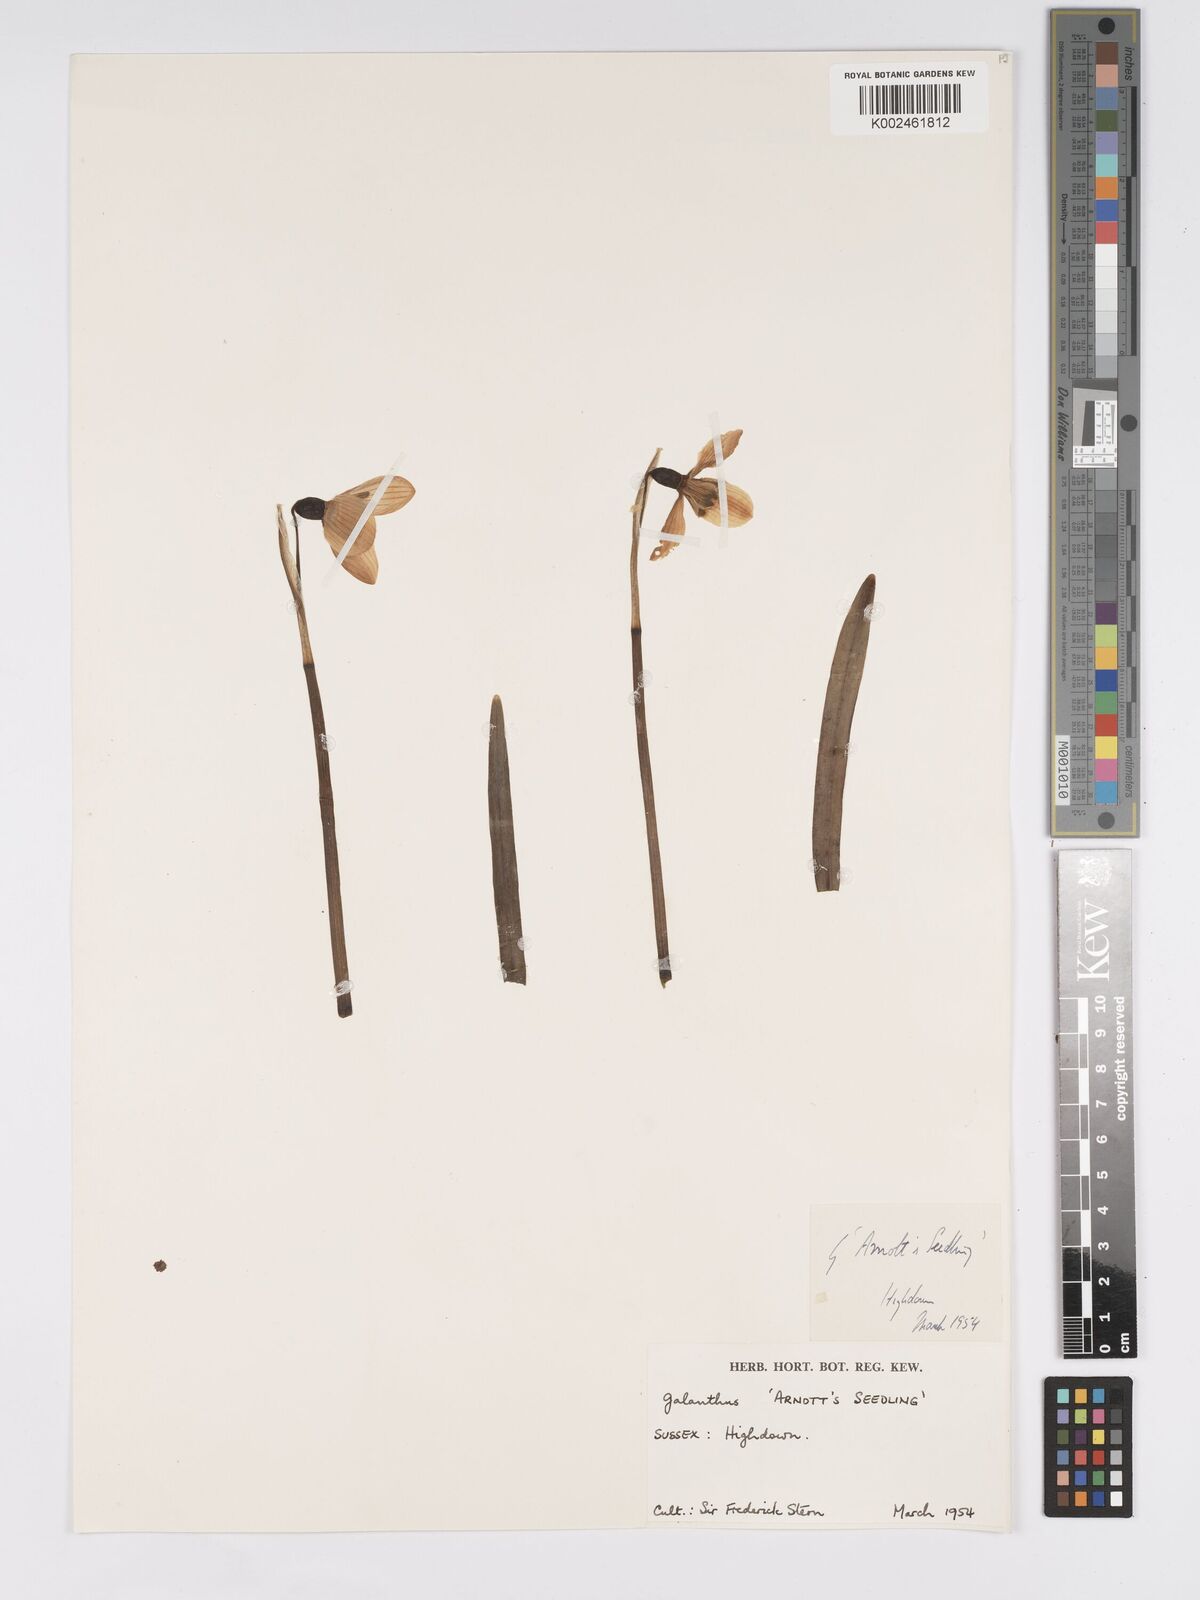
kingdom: Plantae
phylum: Tracheophyta
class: Liliopsida
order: Asparagales
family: Amaryllidaceae
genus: Galanthus
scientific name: Galanthus
